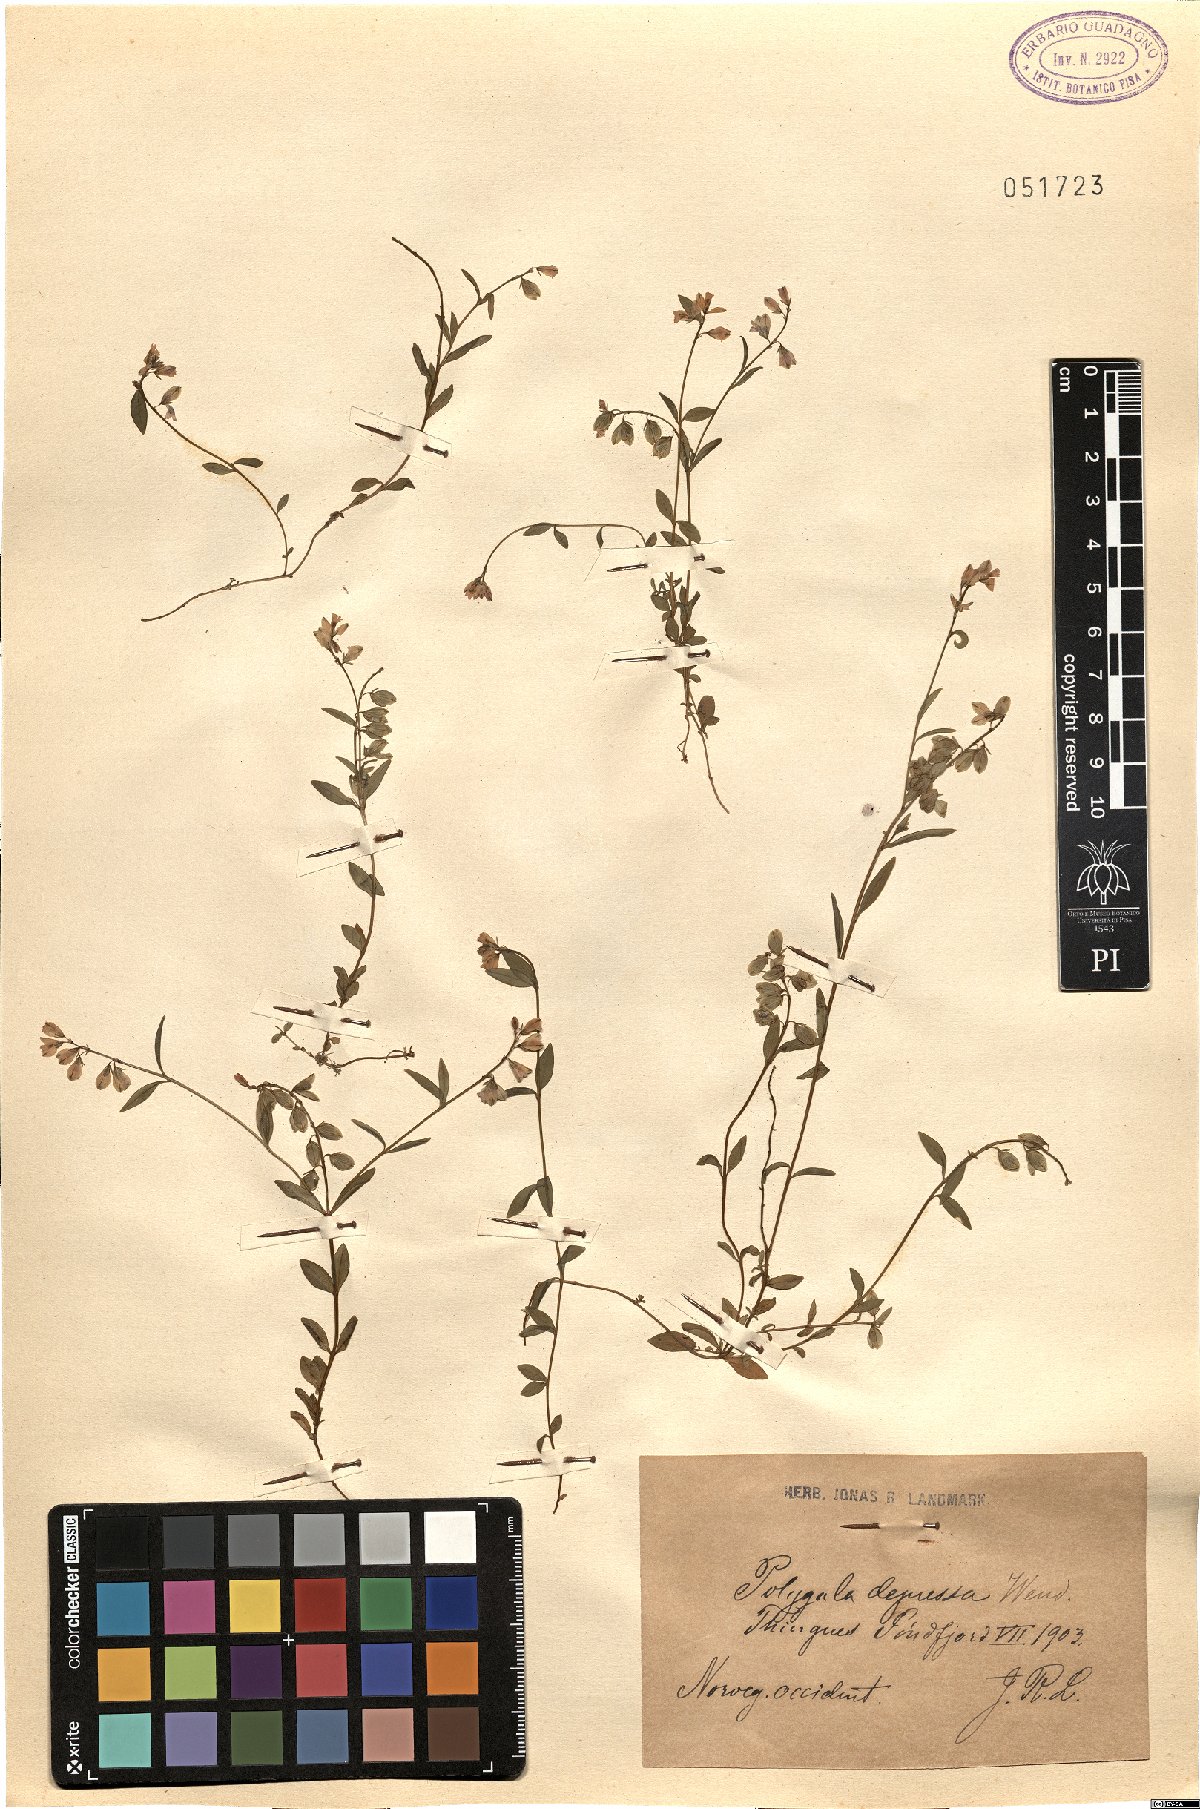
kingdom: Plantae
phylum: Tracheophyta
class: Magnoliopsida
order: Fabales
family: Polygalaceae
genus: Polygala
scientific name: Polygala serpyllifolia
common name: Heath milkwort
